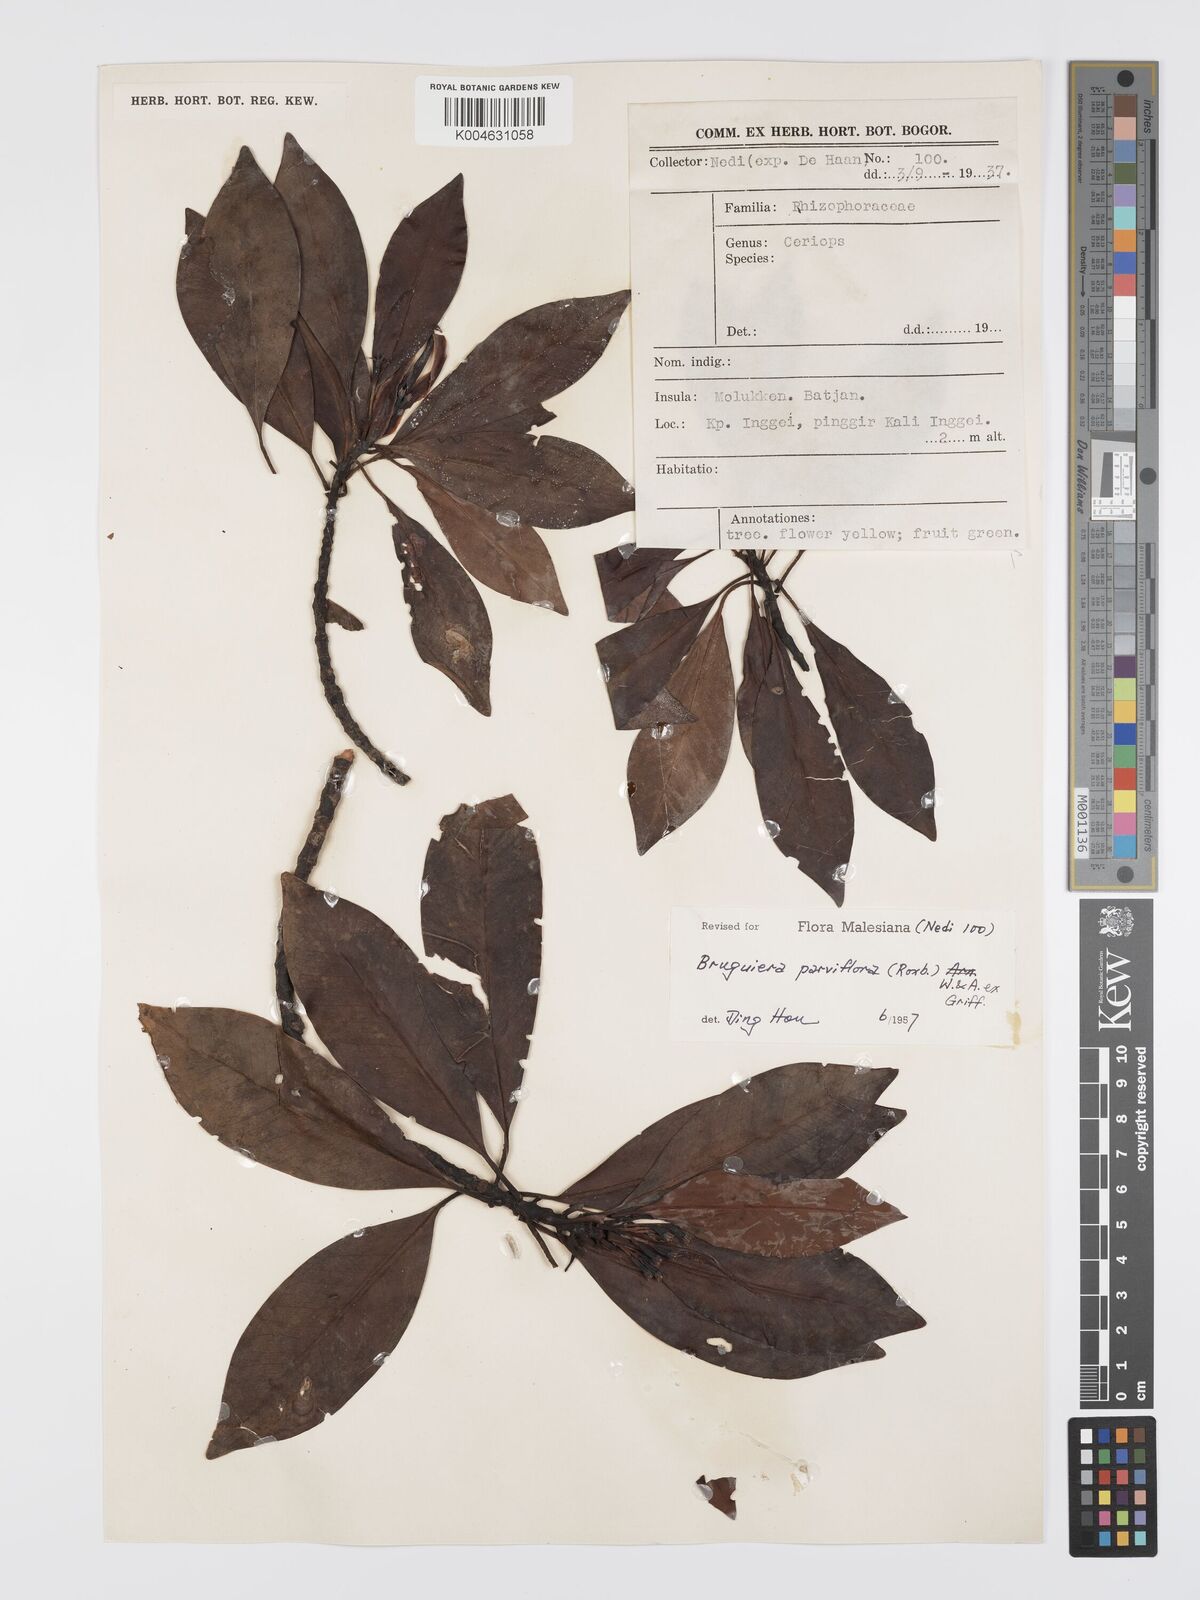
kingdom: Plantae
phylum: Tracheophyta
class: Magnoliopsida
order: Malpighiales
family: Rhizophoraceae
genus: Bruguiera
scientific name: Bruguiera parviflora
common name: Smallflower bruguiera
